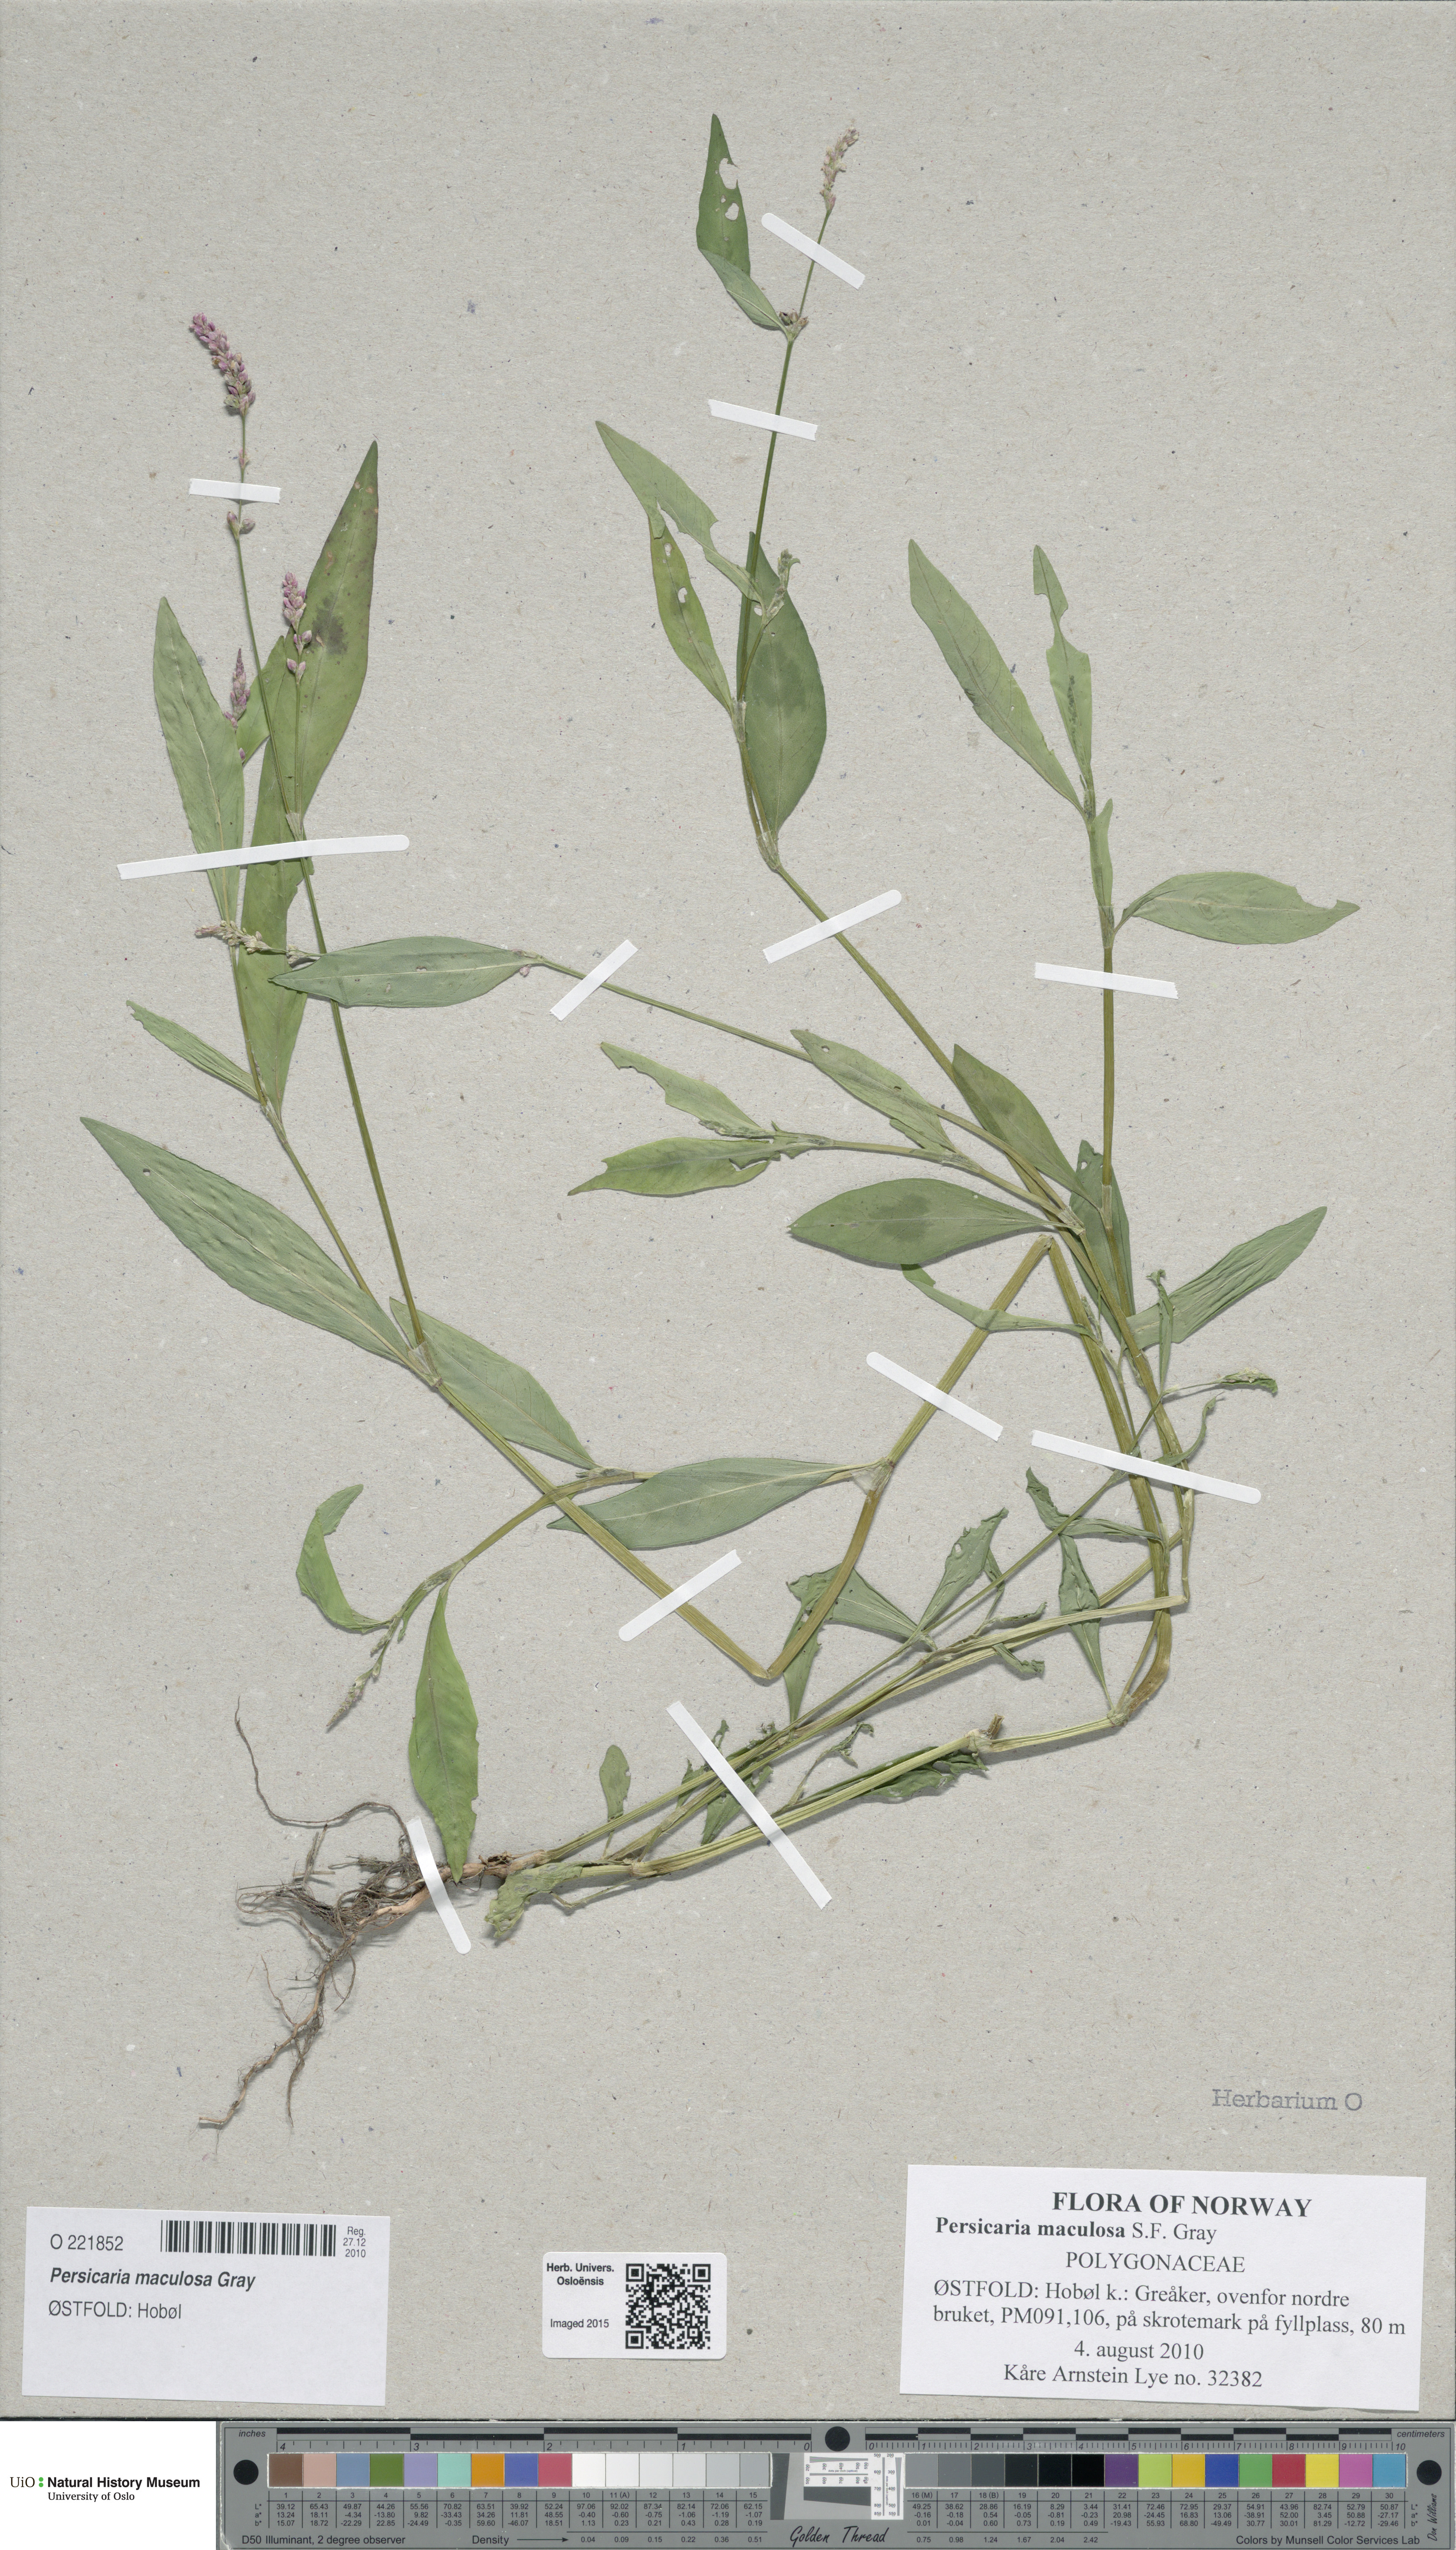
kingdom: Plantae
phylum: Tracheophyta
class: Magnoliopsida
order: Caryophyllales
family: Polygonaceae
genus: Persicaria
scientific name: Persicaria maculosa
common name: Redshank
